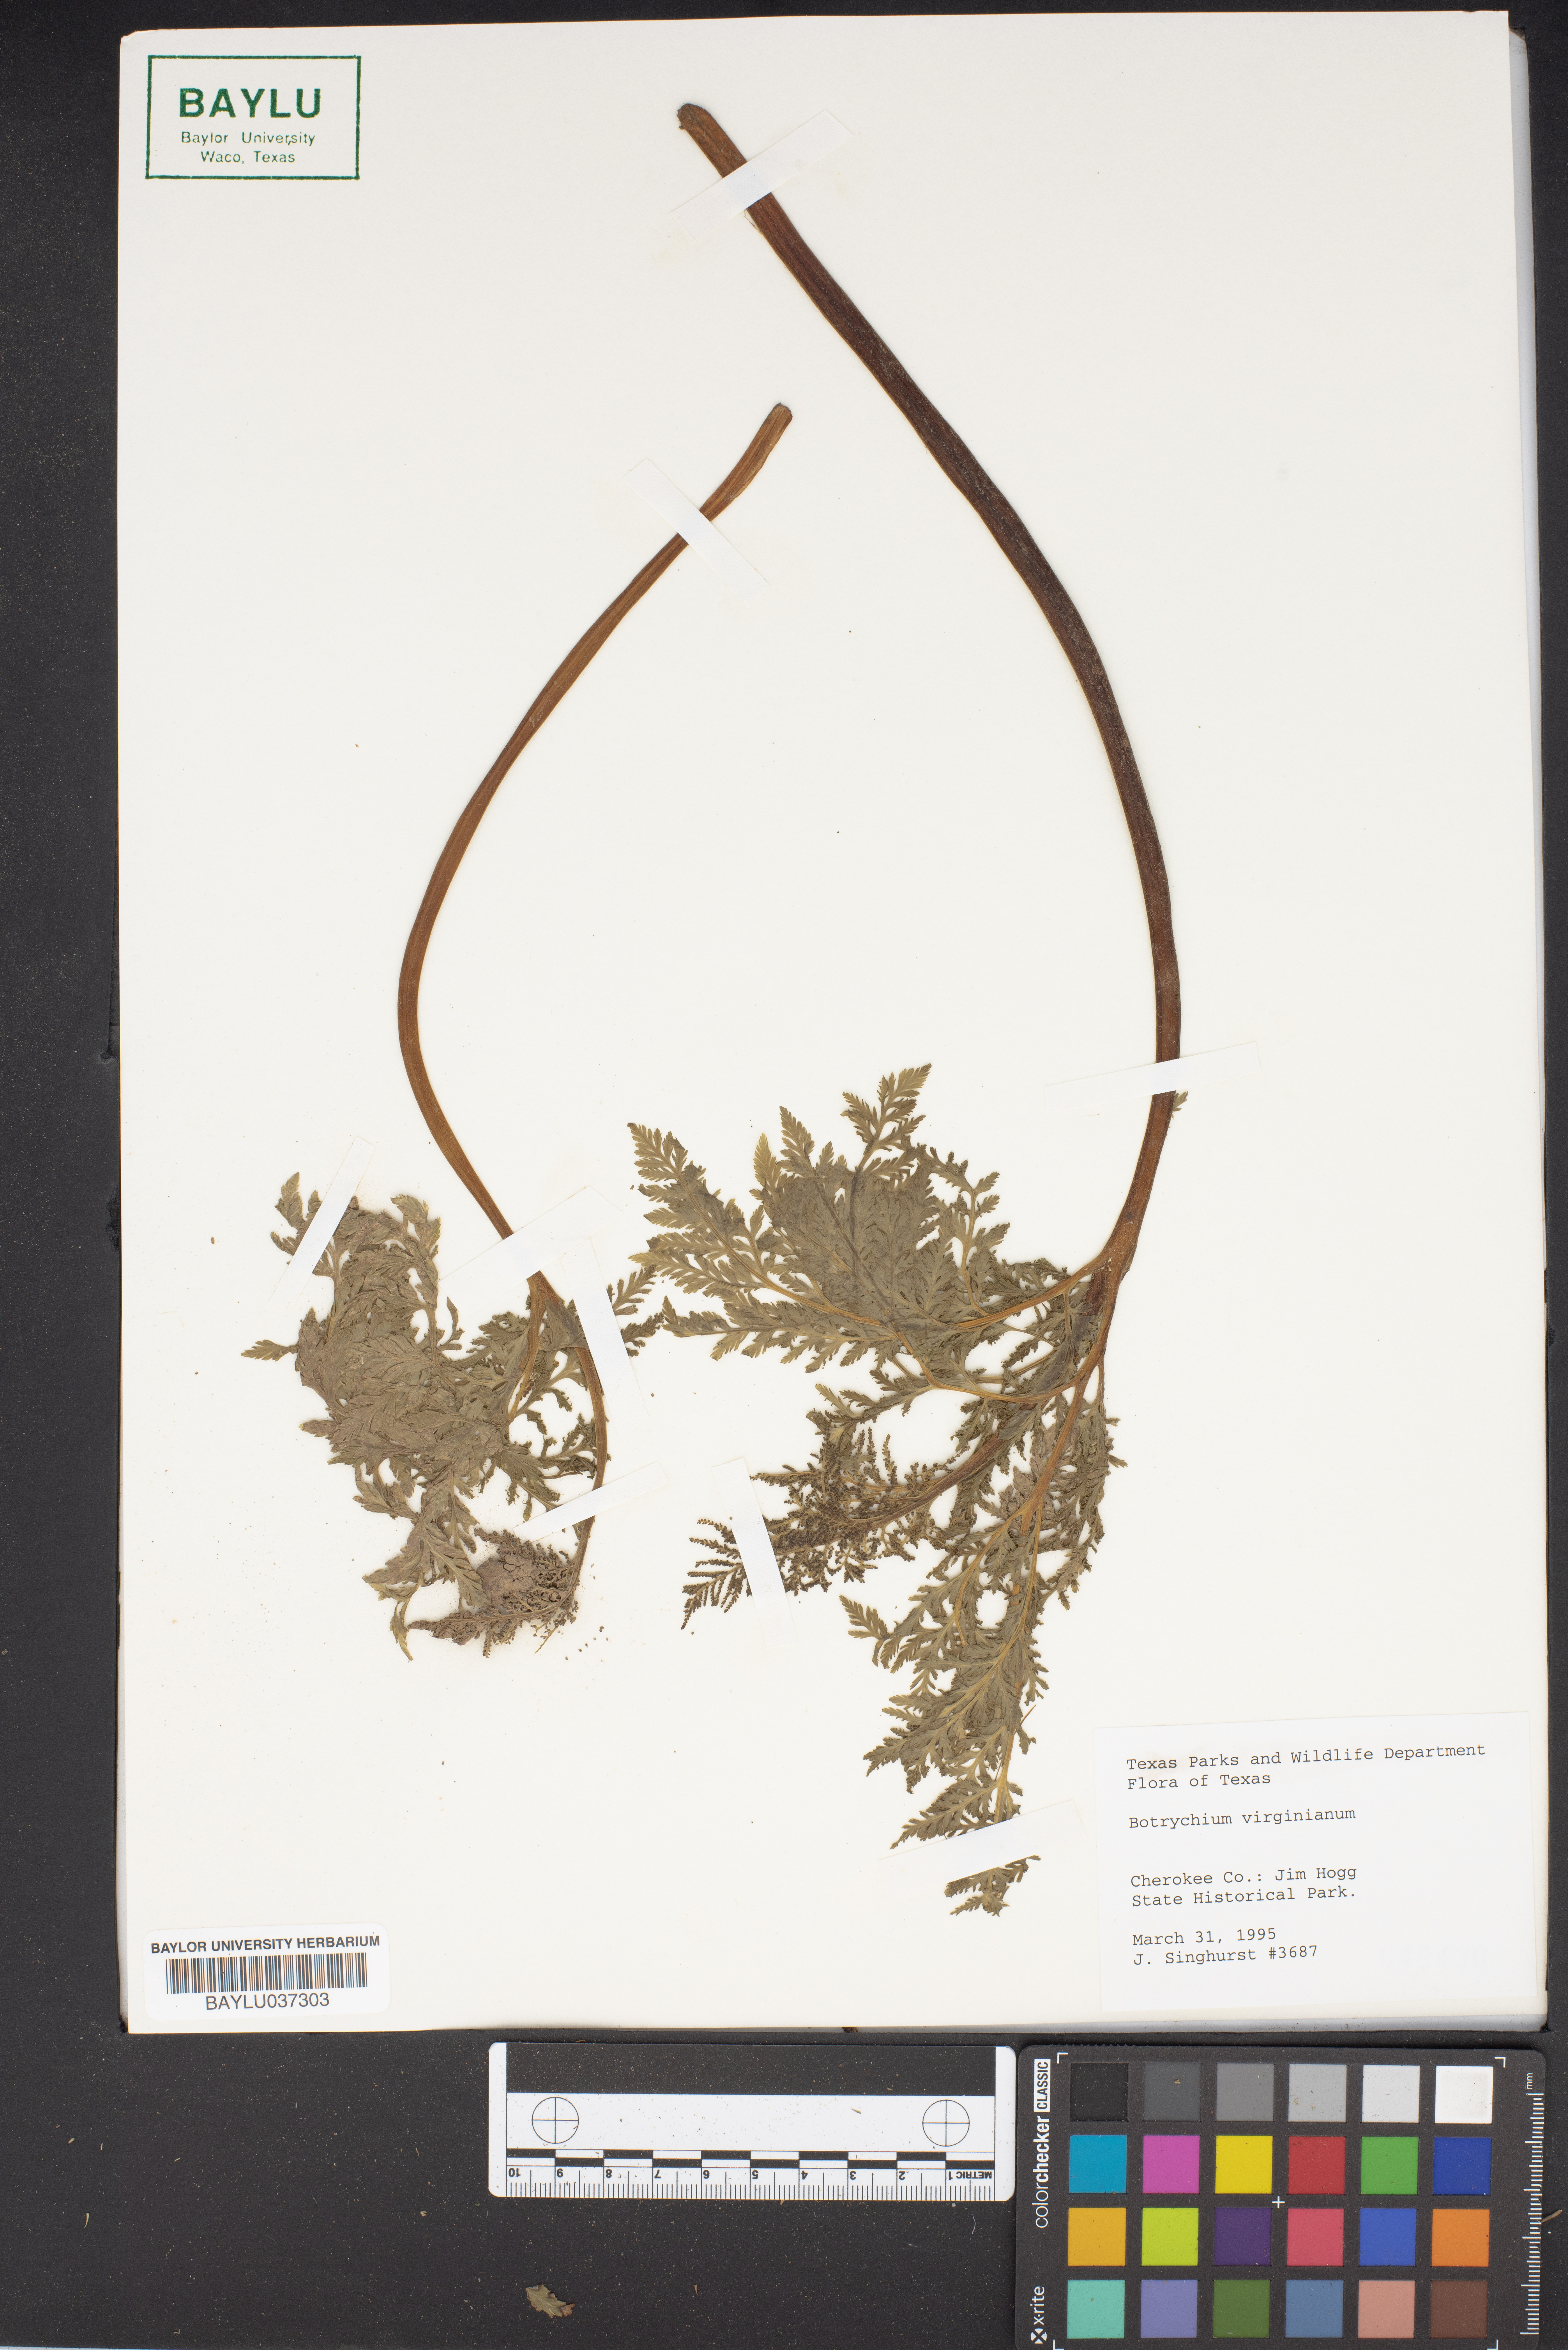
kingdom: Plantae
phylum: Tracheophyta
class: Polypodiopsida
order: Ophioglossales
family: Ophioglossaceae
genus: Botrypus
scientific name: Botrypus virginianus
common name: Common grapefern
